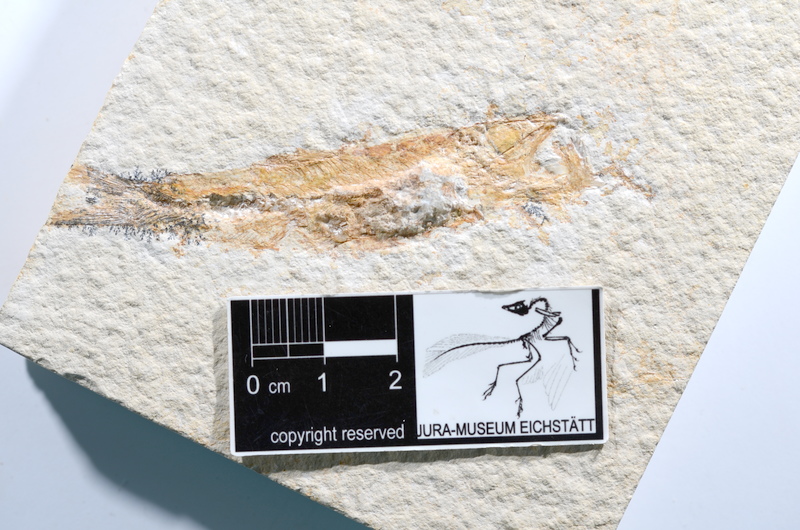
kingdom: Animalia
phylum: Chordata
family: Ascalaboidae
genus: Ascalabos
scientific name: Ascalabos voithii
